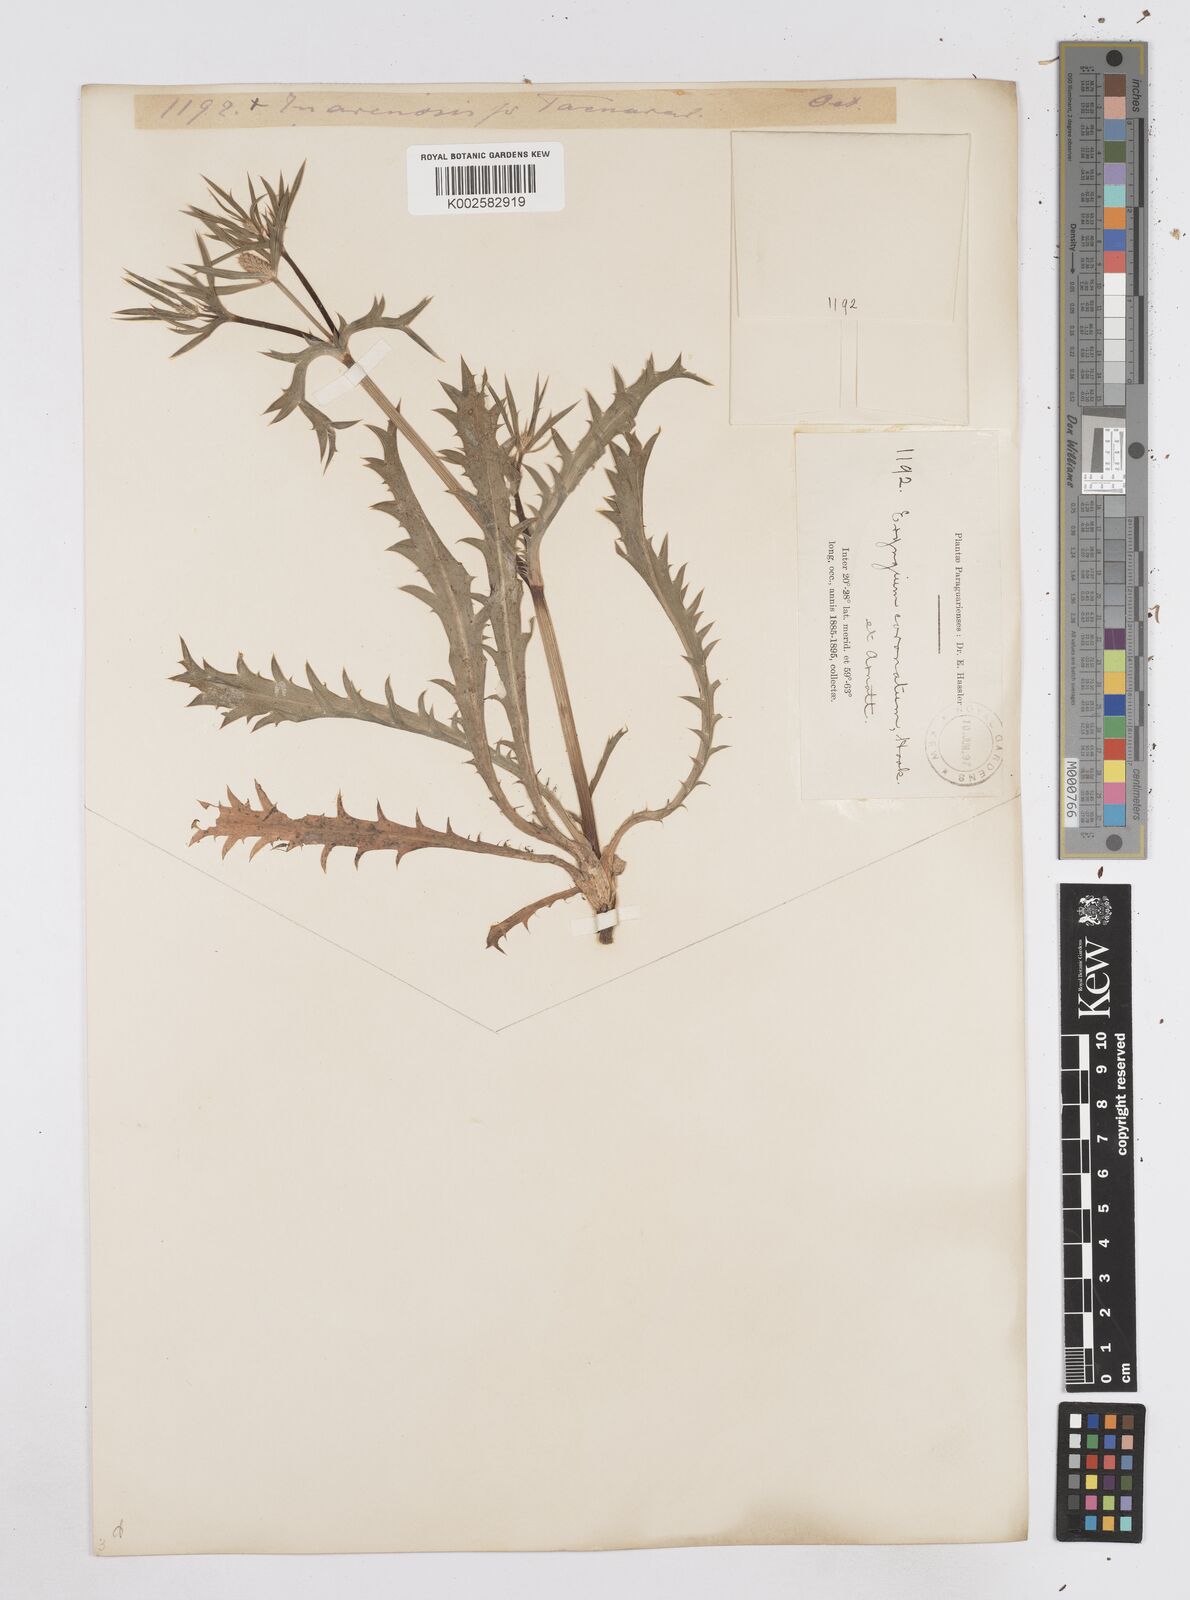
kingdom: Plantae
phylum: Tracheophyta
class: Magnoliopsida
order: Apiales
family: Apiaceae
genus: Eryngium
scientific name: Eryngium coronatum
